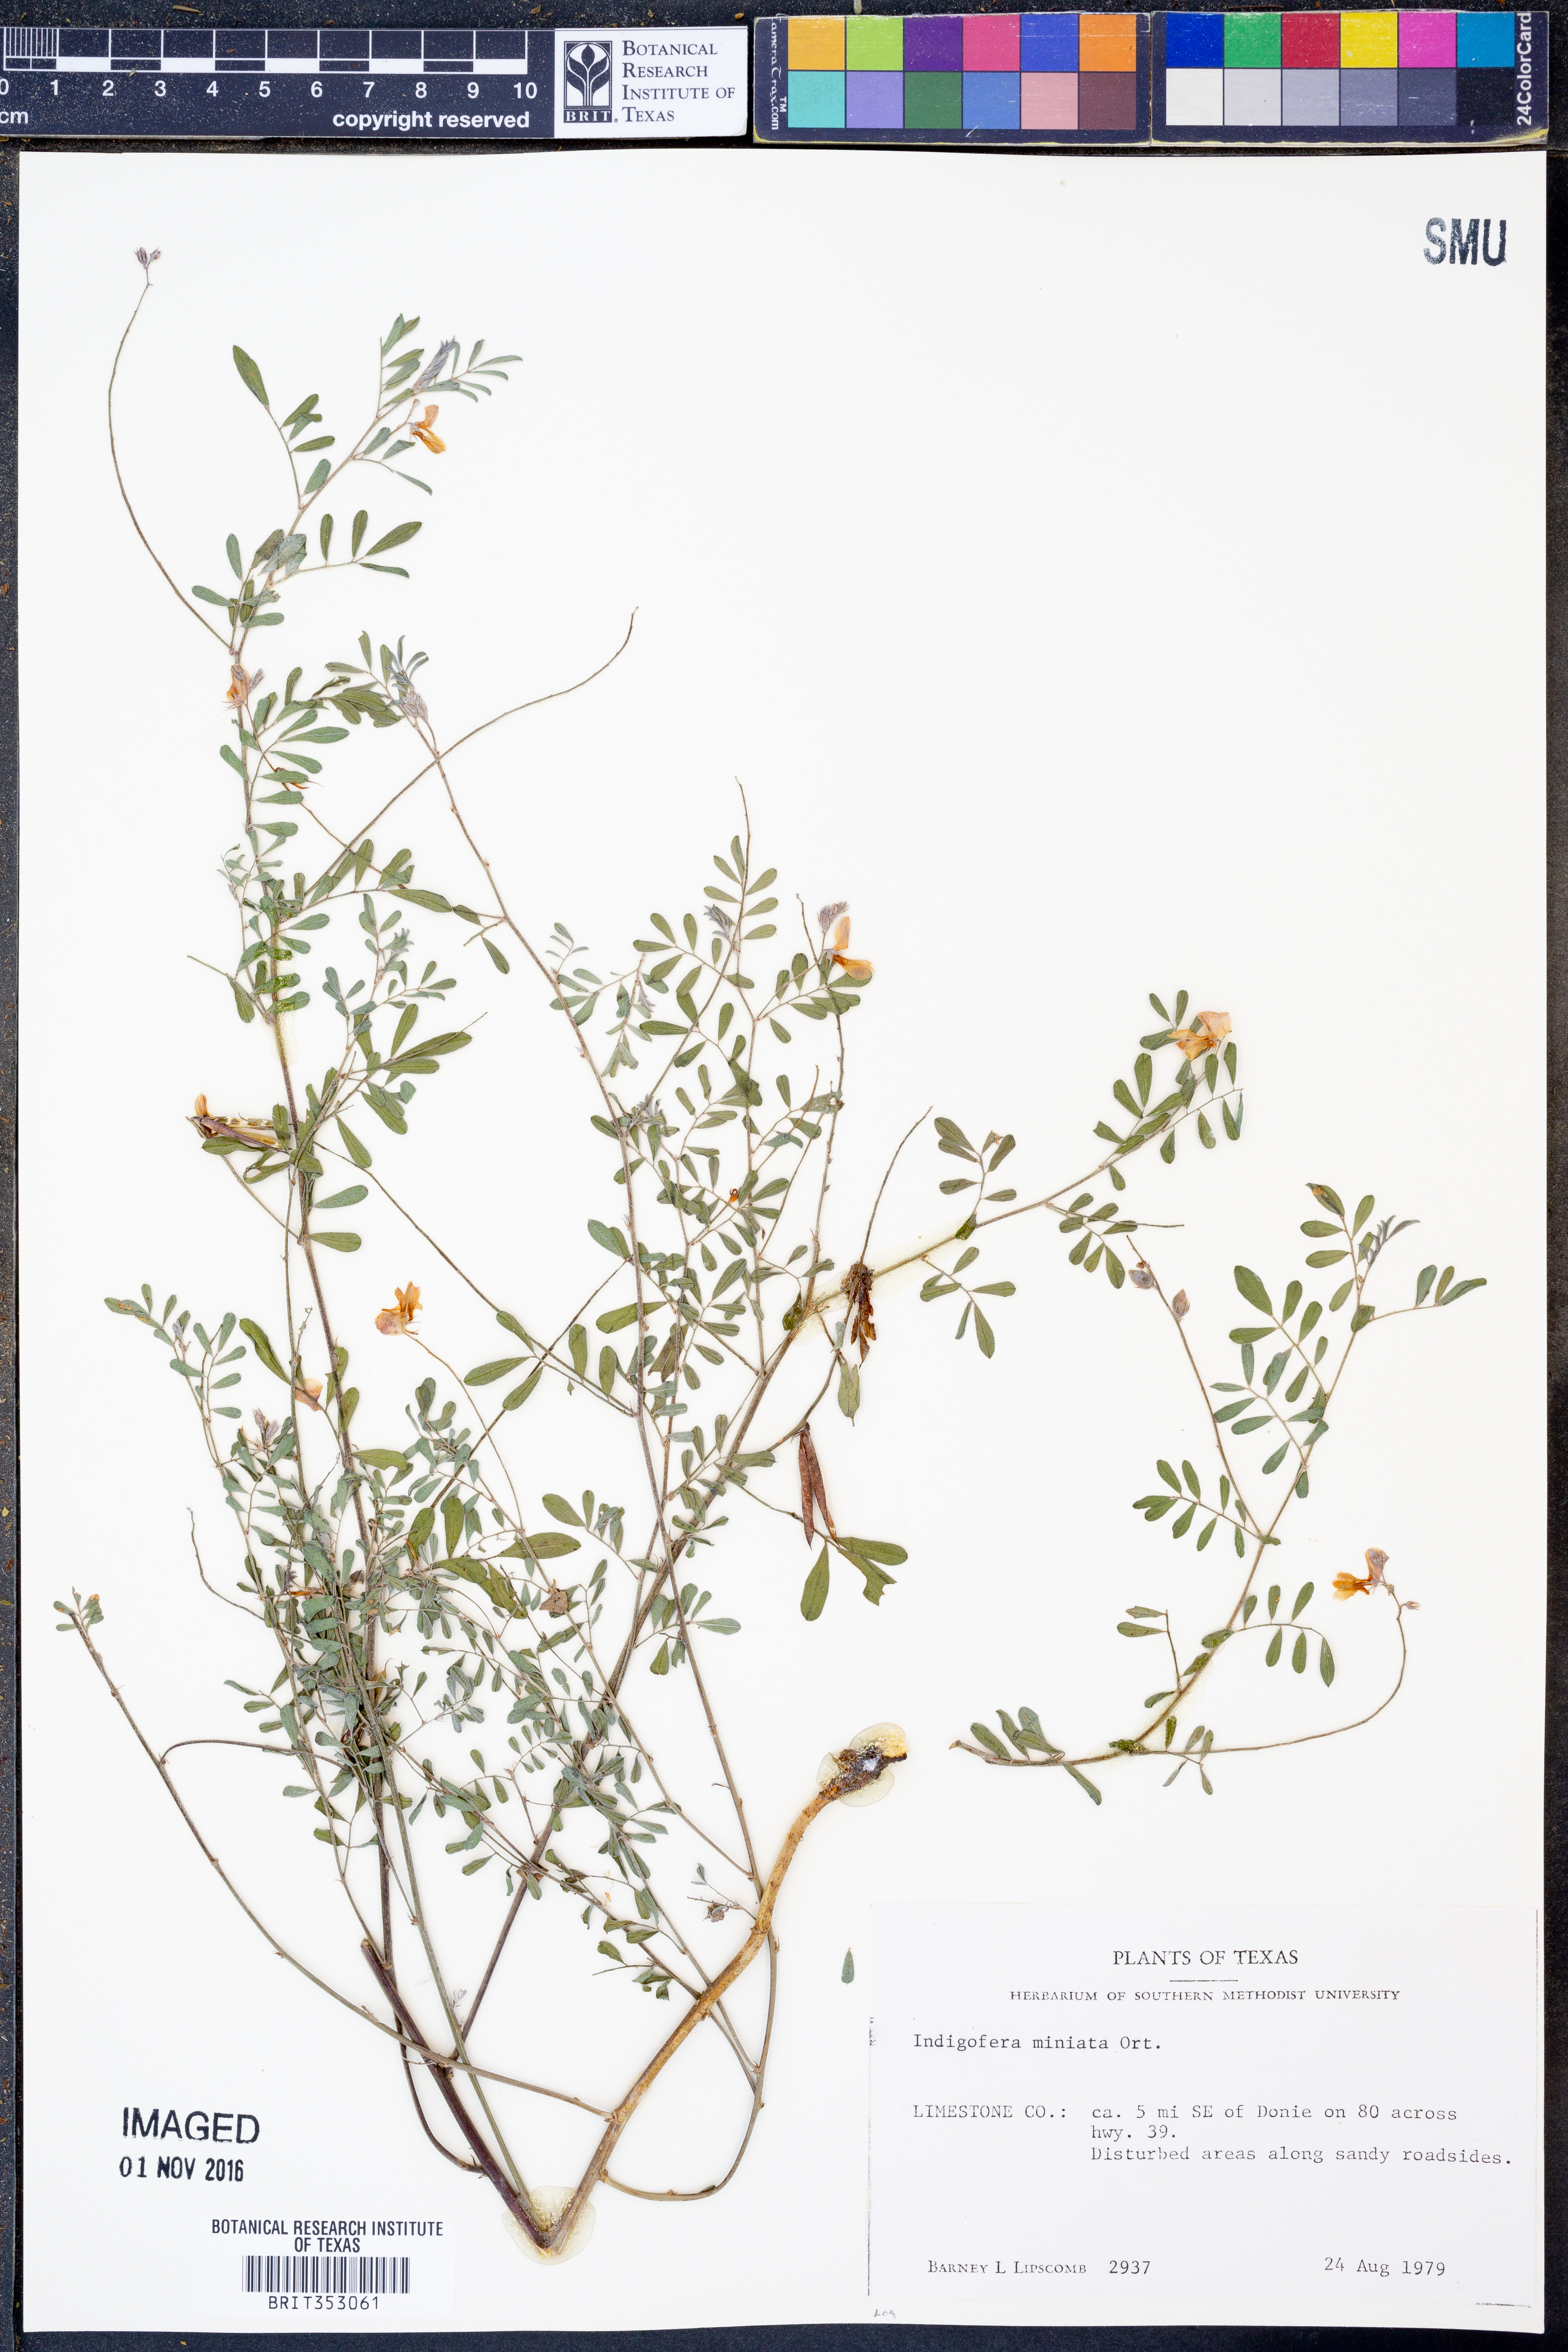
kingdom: Plantae
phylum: Tracheophyta
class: Magnoliopsida
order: Fabales
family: Fabaceae
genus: Indigofera
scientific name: Indigofera miniata
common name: Coast indigo
